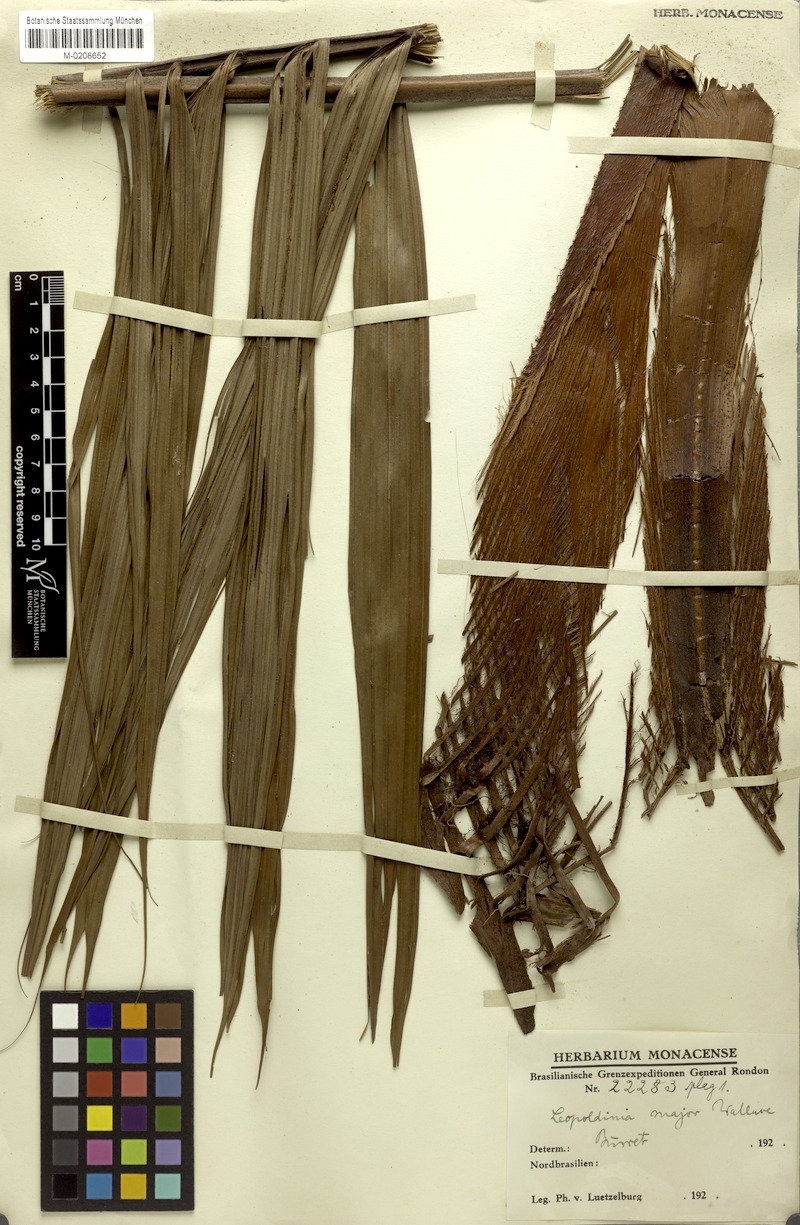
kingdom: Plantae
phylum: Tracheophyta
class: Liliopsida
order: Arecales
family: Arecaceae
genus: Leopoldinia
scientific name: Leopoldinia major
